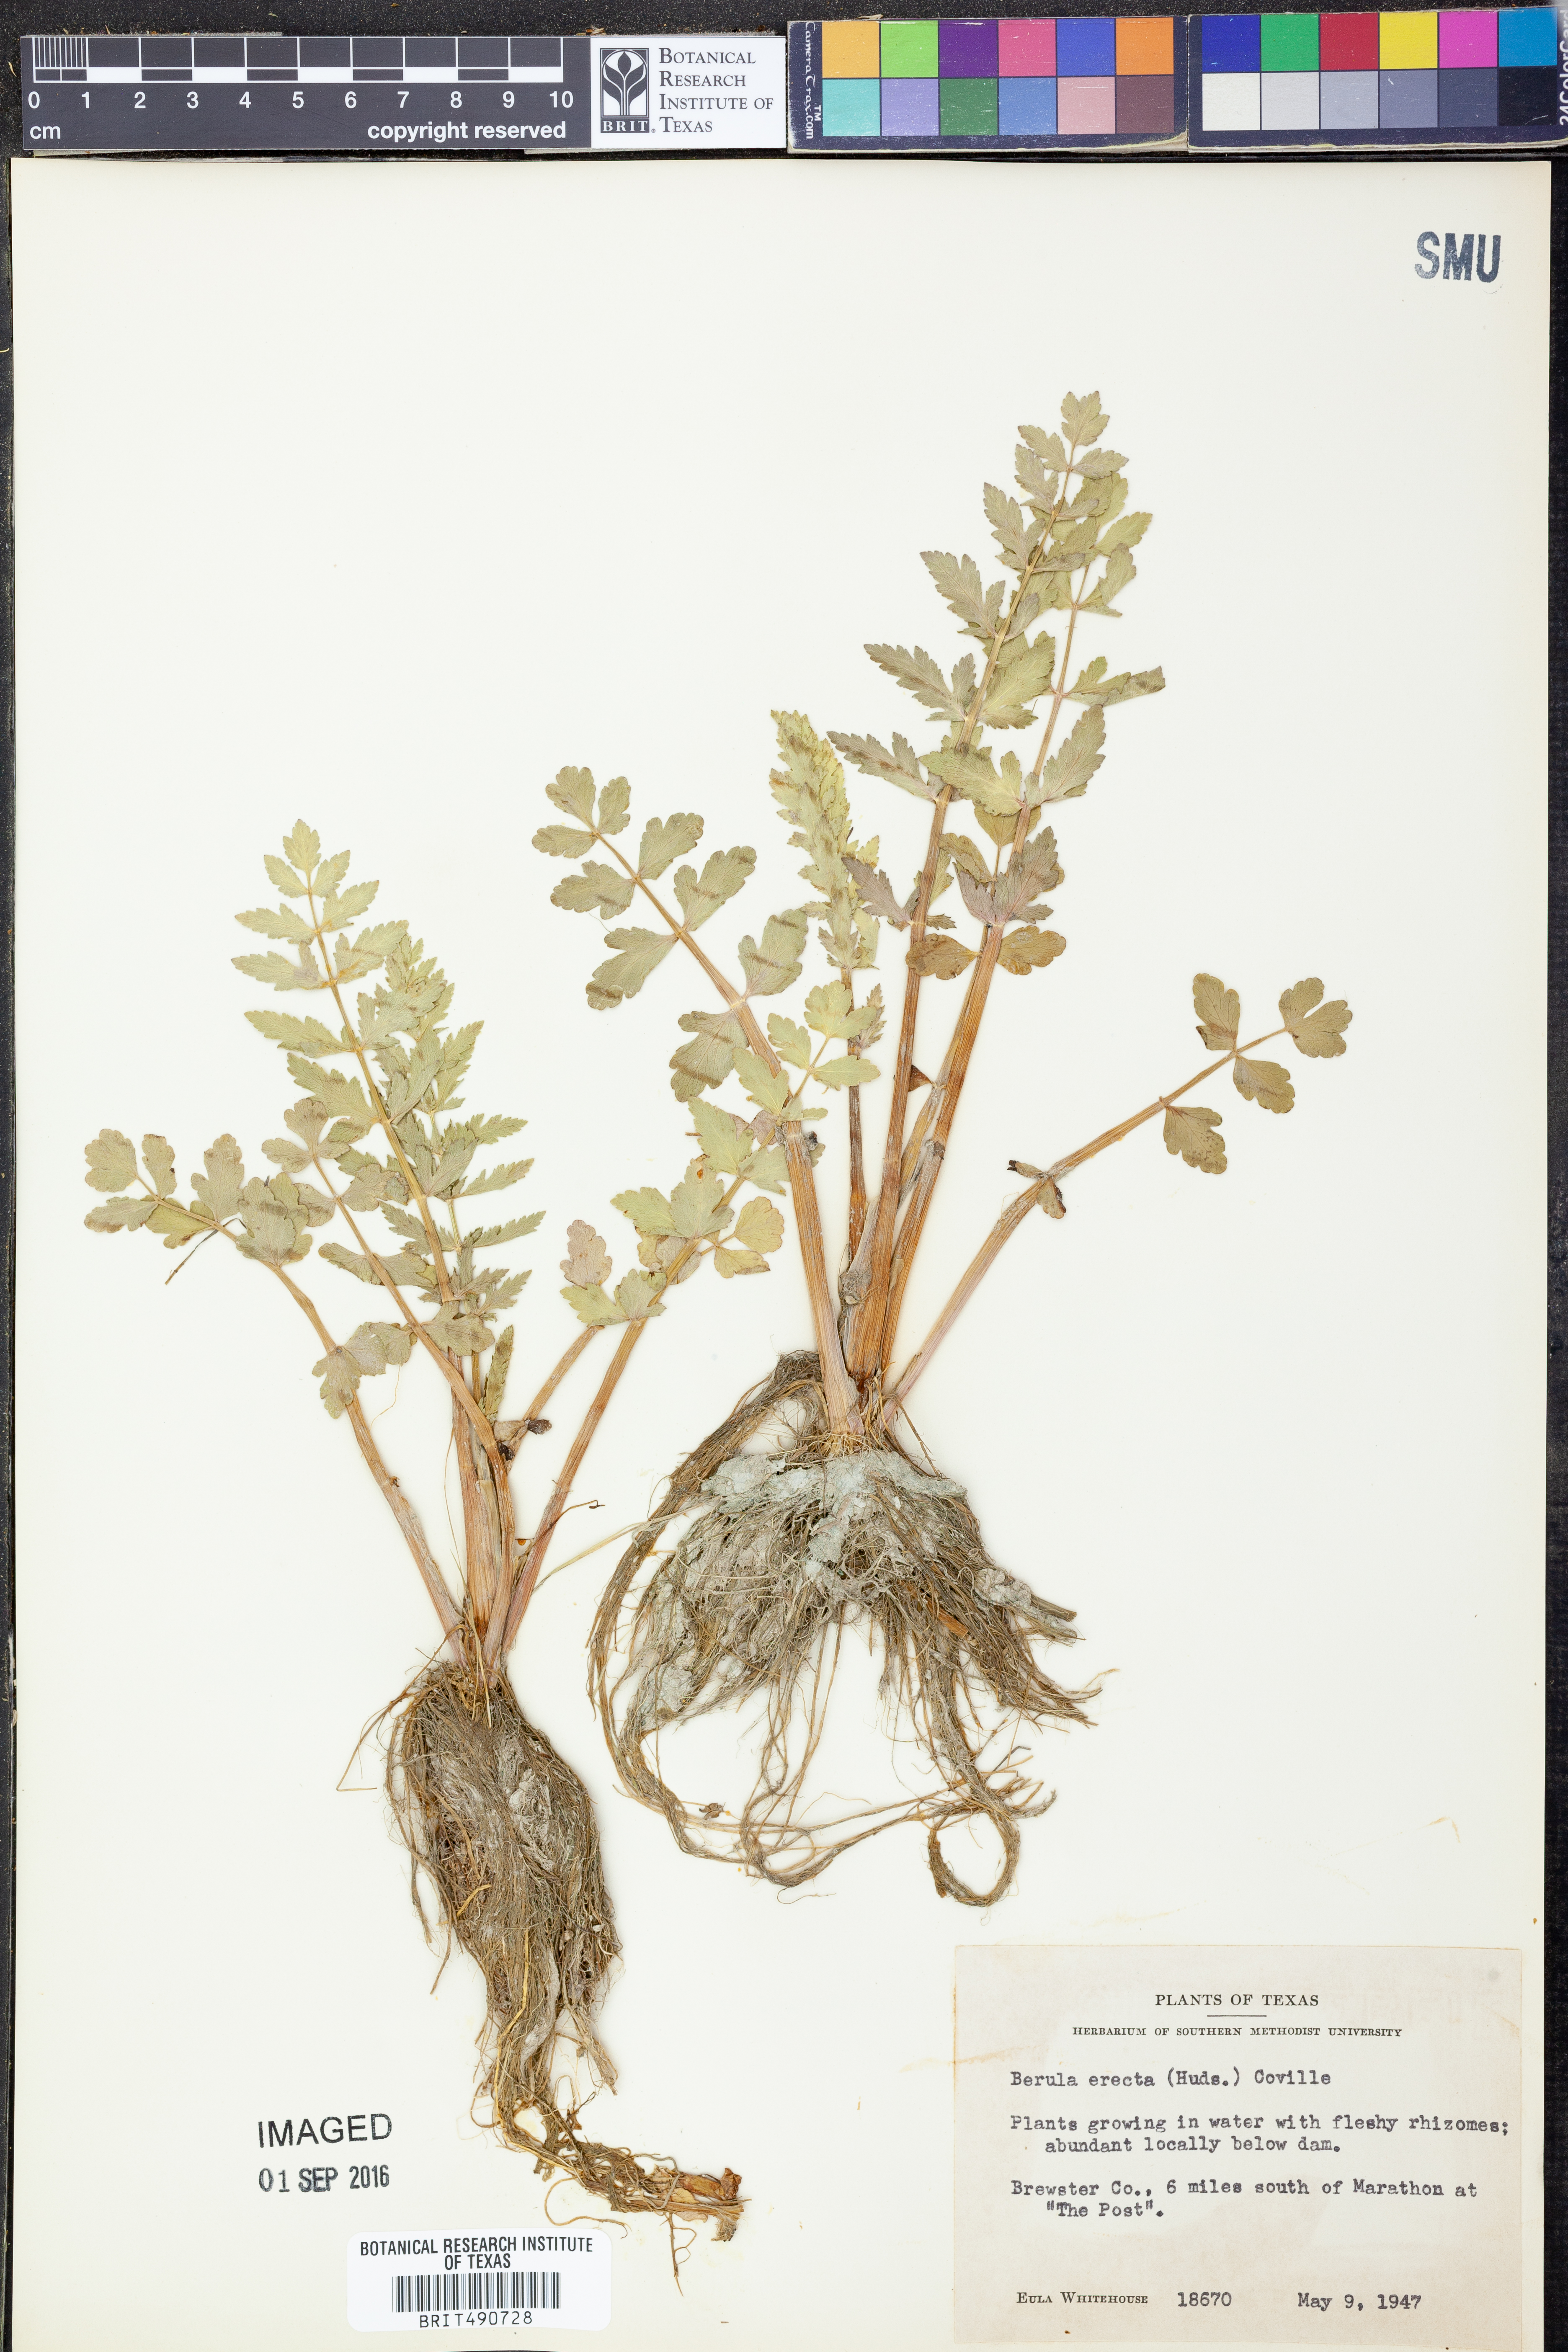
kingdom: Plantae
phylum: Tracheophyta
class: Magnoliopsida
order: Apiales
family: Apiaceae
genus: Berula
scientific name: Berula erecta
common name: Lesser water-parsnip
